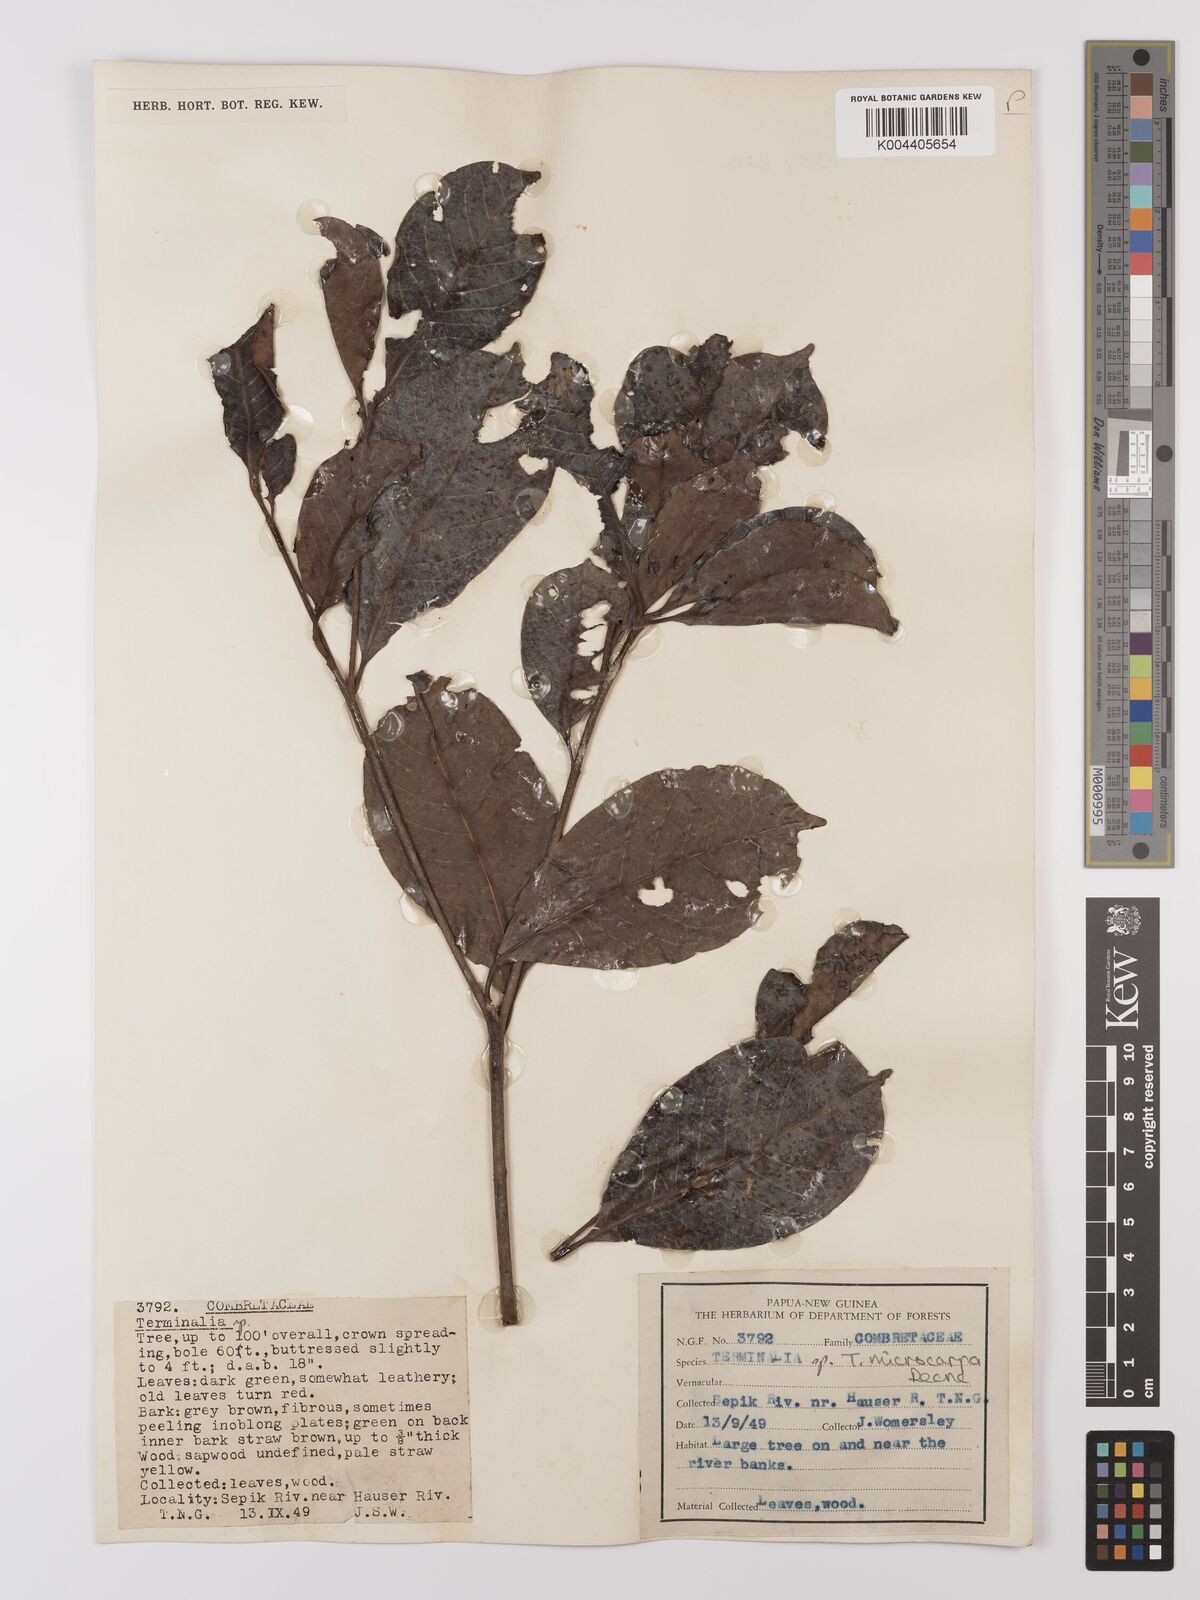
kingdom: Plantae
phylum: Tracheophyta
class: Magnoliopsida
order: Myrtales
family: Combretaceae
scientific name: Combretaceae
